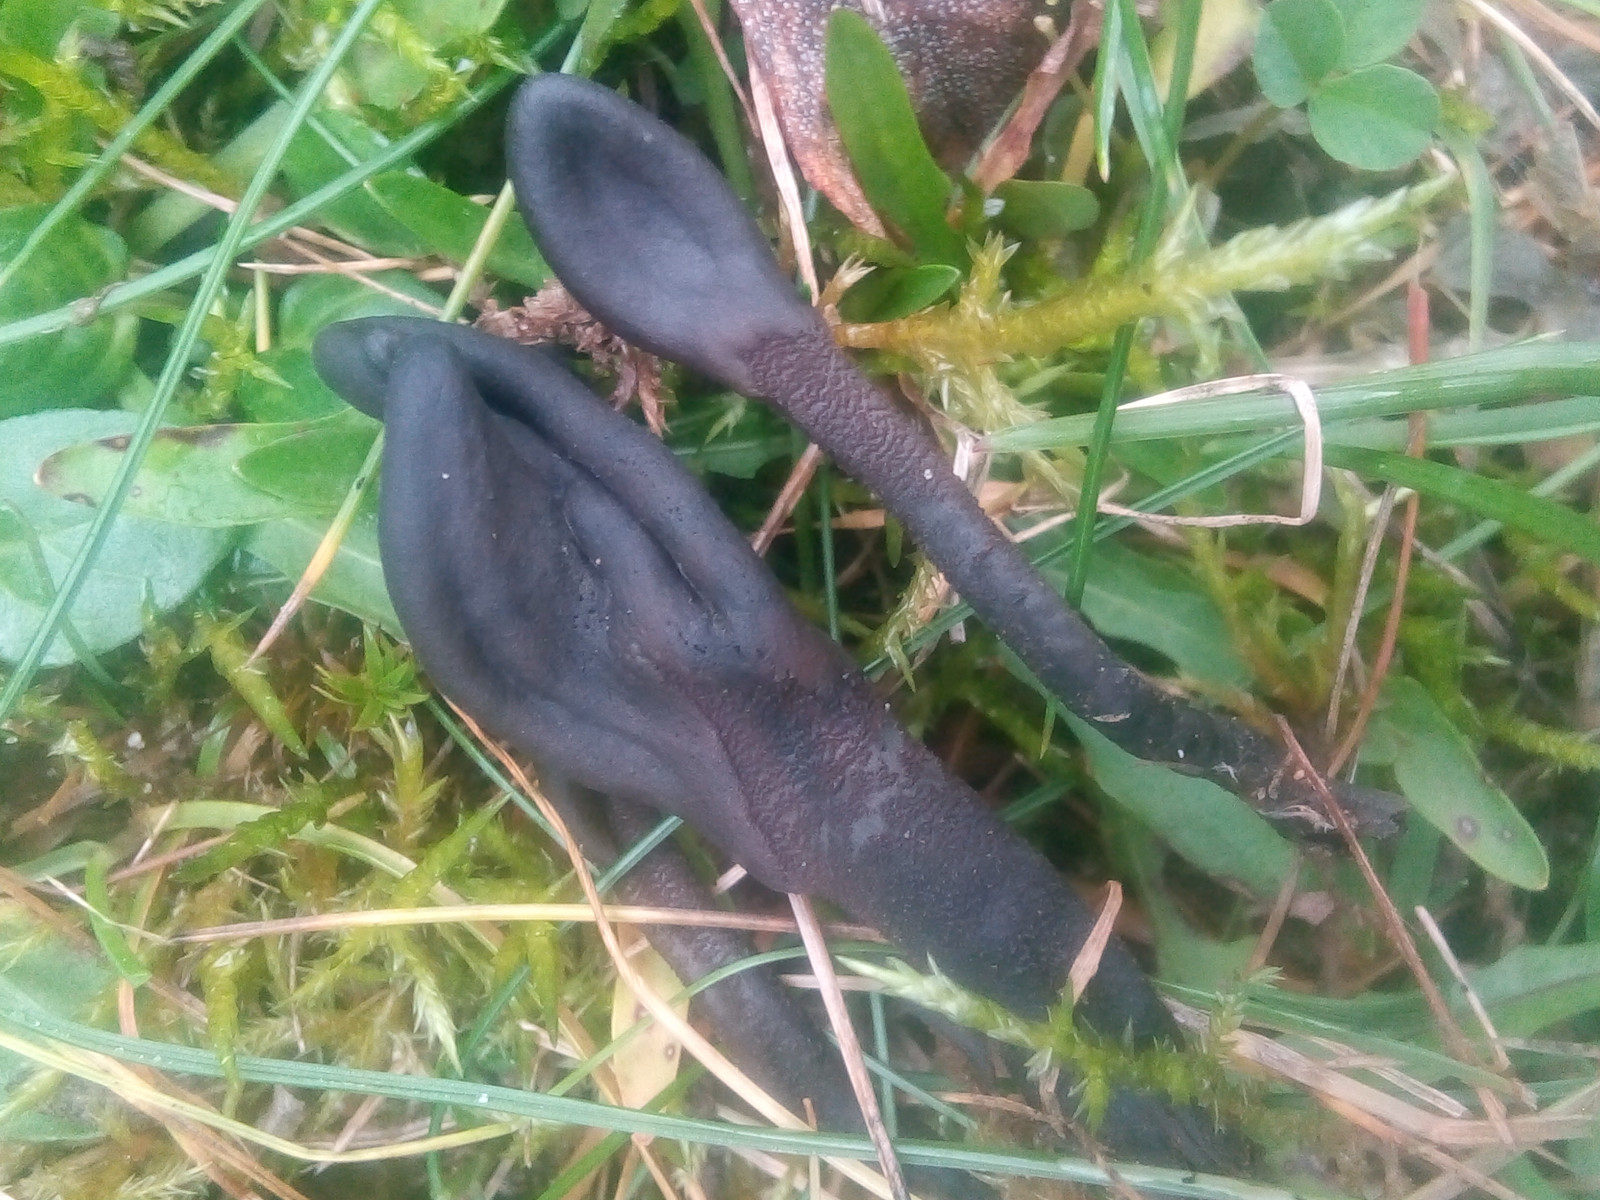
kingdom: Fungi
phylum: Ascomycota
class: Geoglossomycetes
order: Geoglossales
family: Geoglossaceae
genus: Geoglossum
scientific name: Geoglossum fallax
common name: småskællet jordtunge
